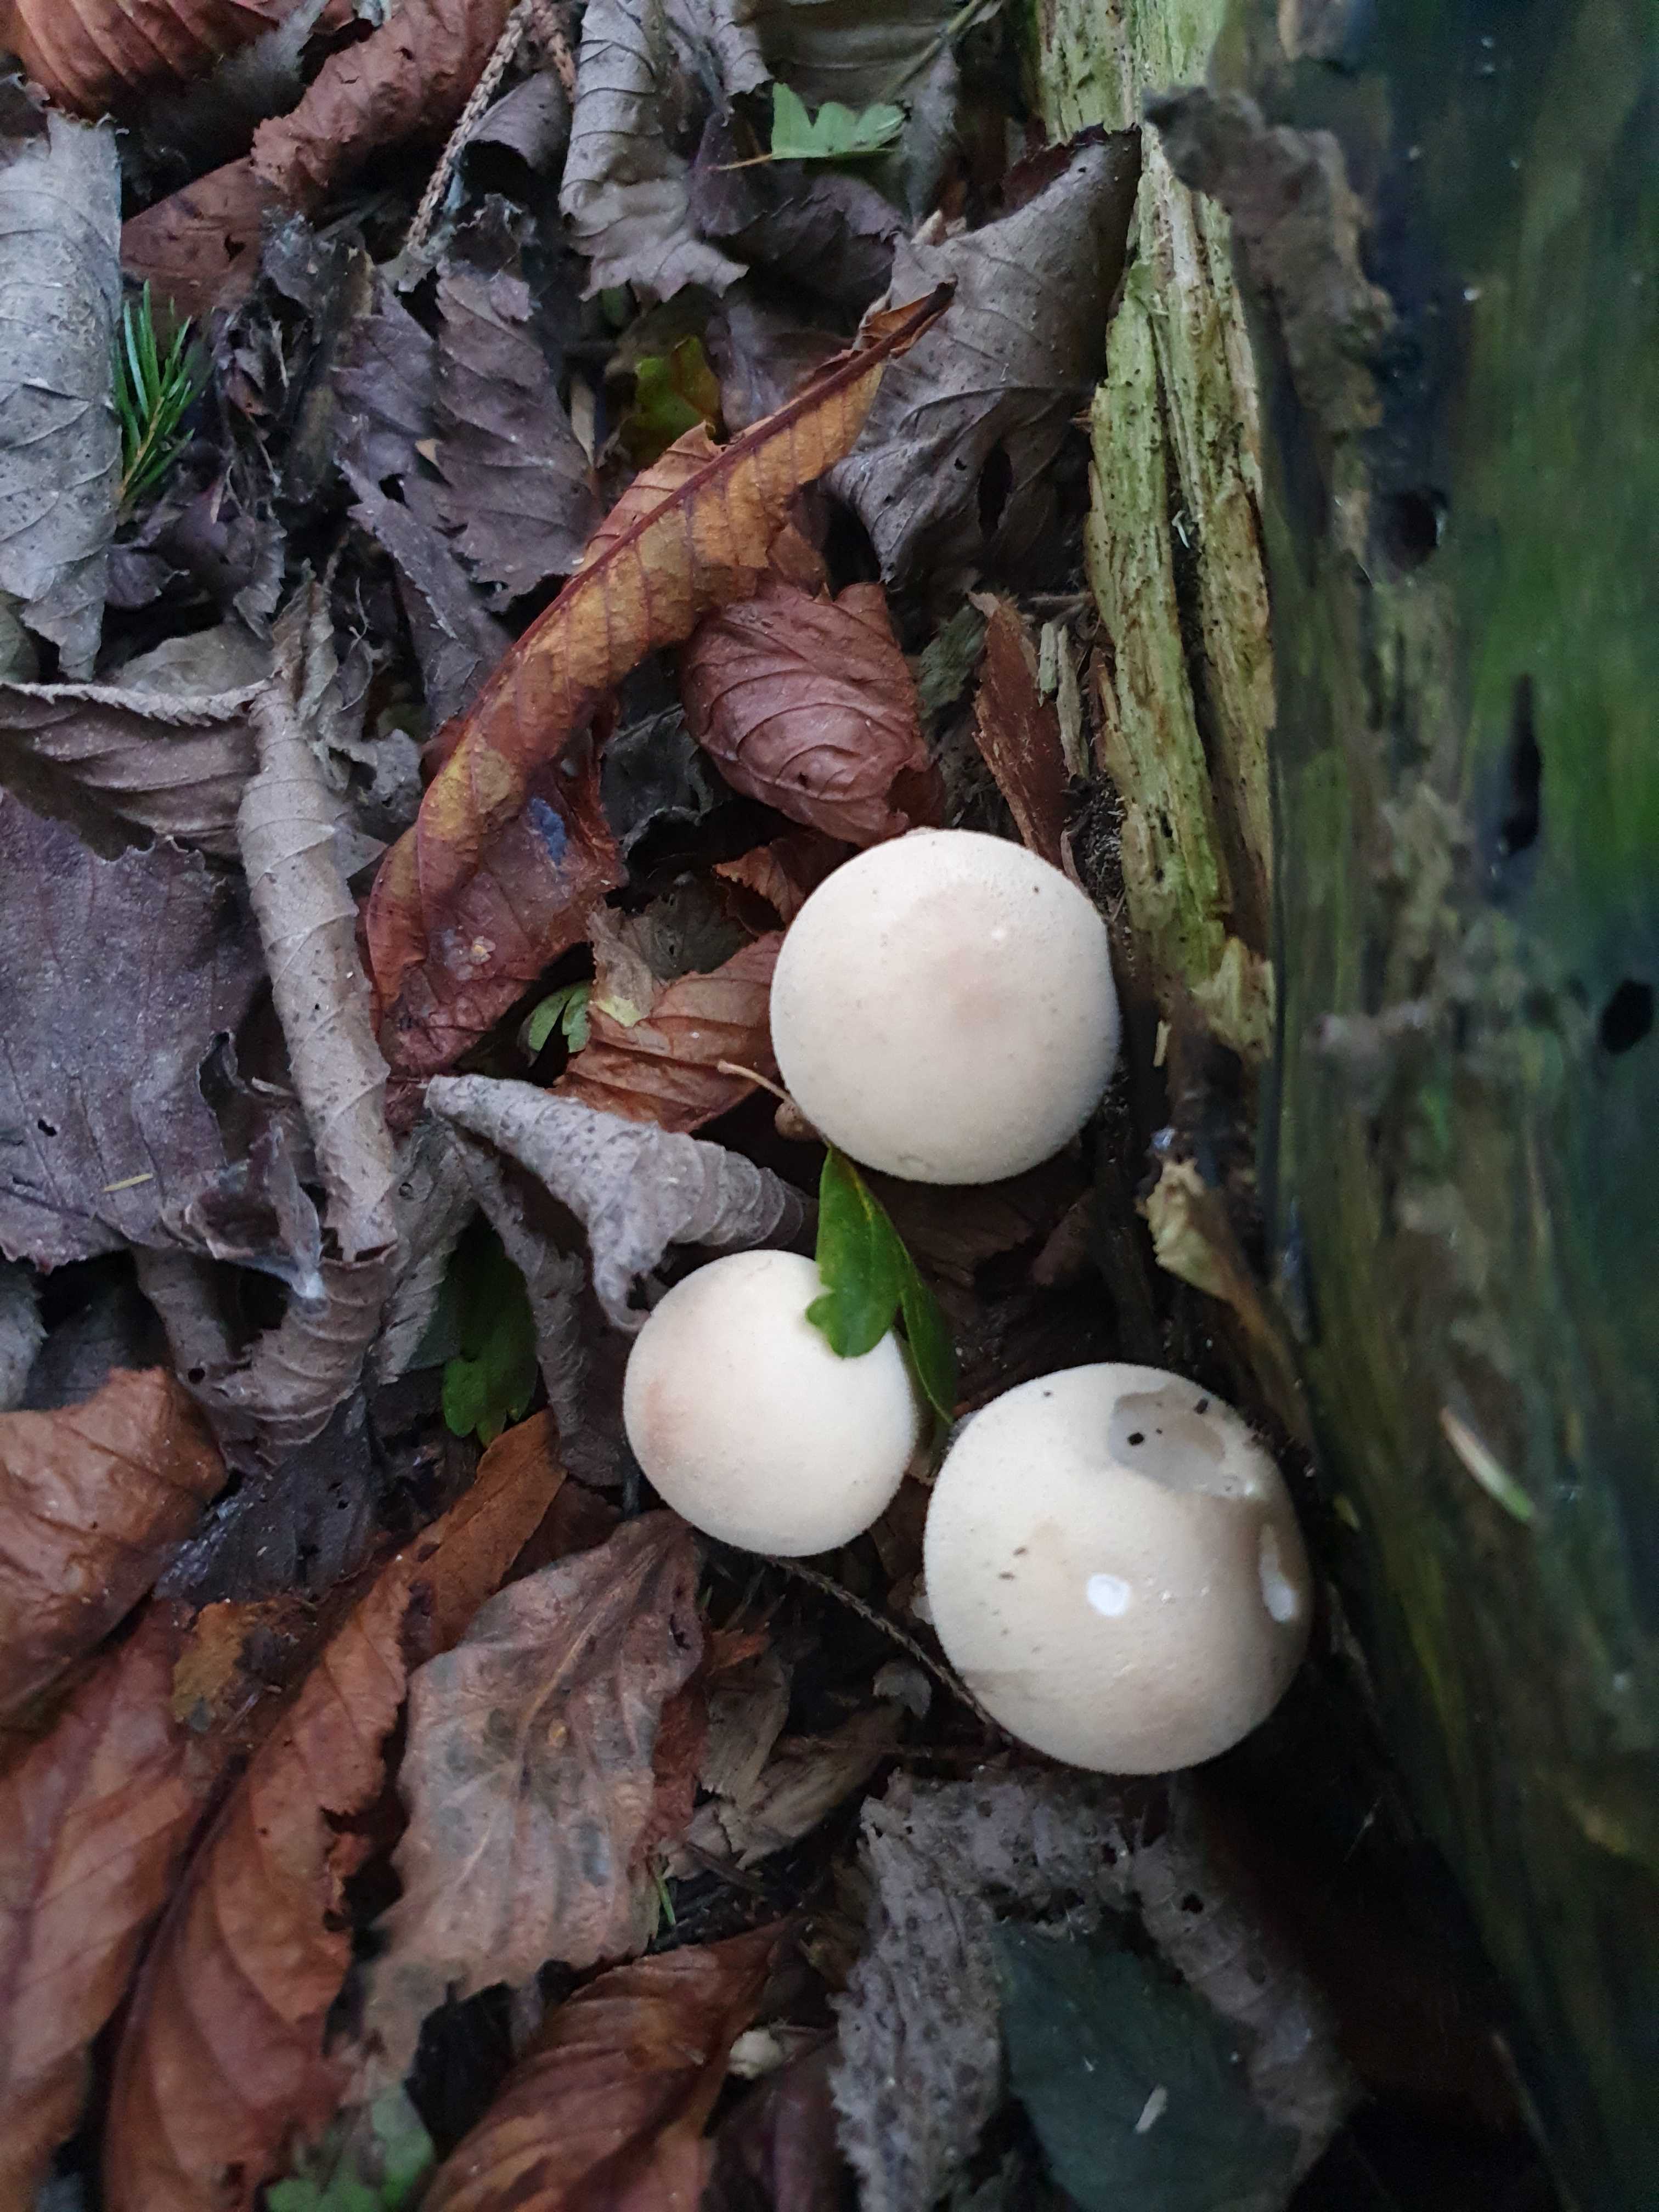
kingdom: Fungi
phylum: Basidiomycota
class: Agaricomycetes
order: Agaricales
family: Lycoperdaceae
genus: Apioperdon
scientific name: Apioperdon pyriforme
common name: pære-støvbold
